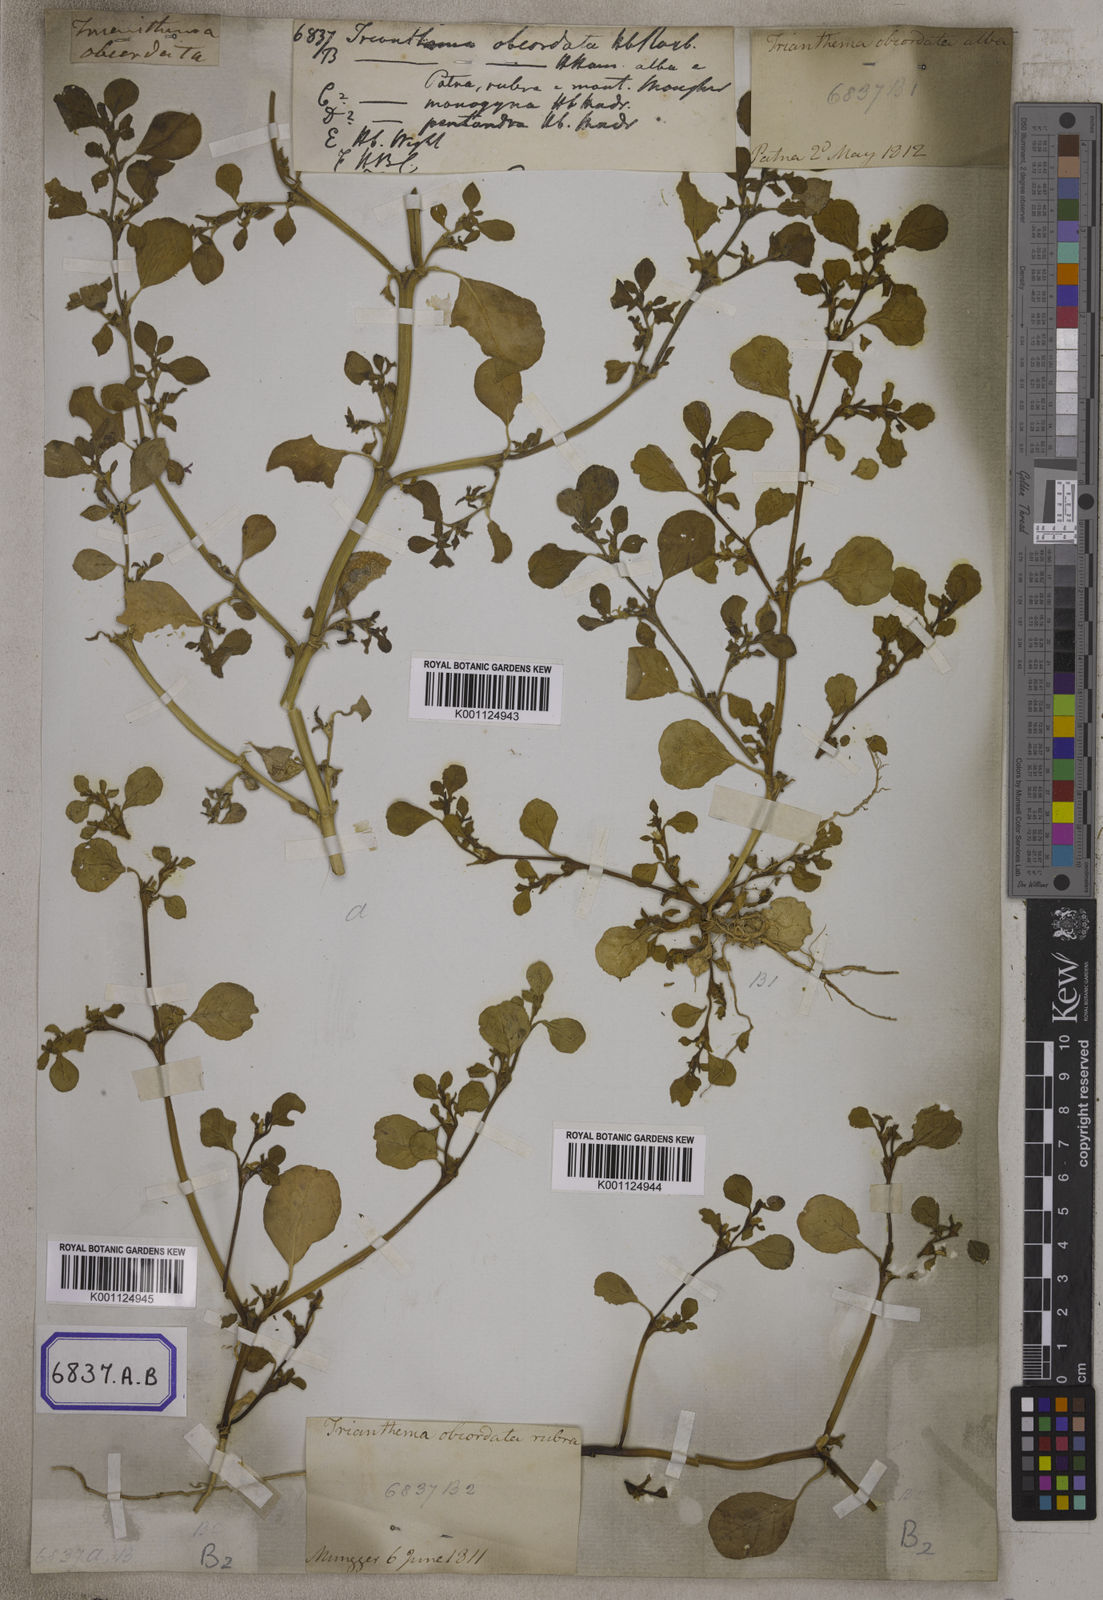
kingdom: Plantae
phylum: Tracheophyta
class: Magnoliopsida
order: Caryophyllales
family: Aizoaceae
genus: Trianthema
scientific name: Trianthema
